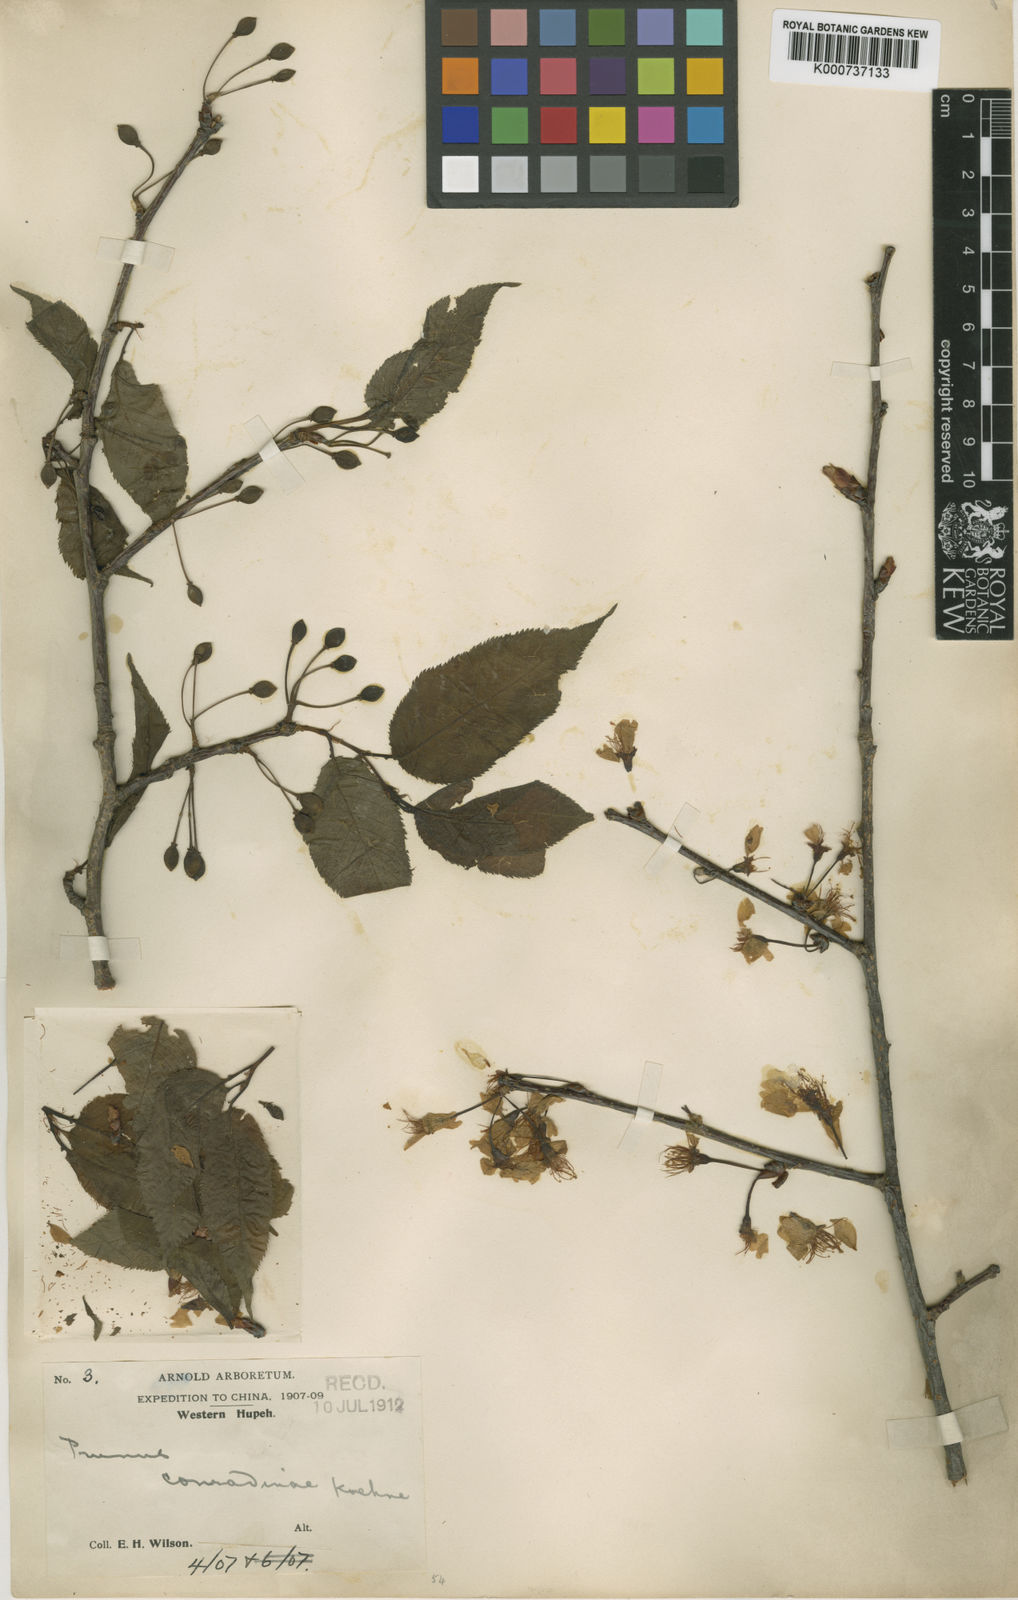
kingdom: Plantae
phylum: Tracheophyta
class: Magnoliopsida
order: Rosales
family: Rosaceae
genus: Prunus
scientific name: Prunus conradinae
